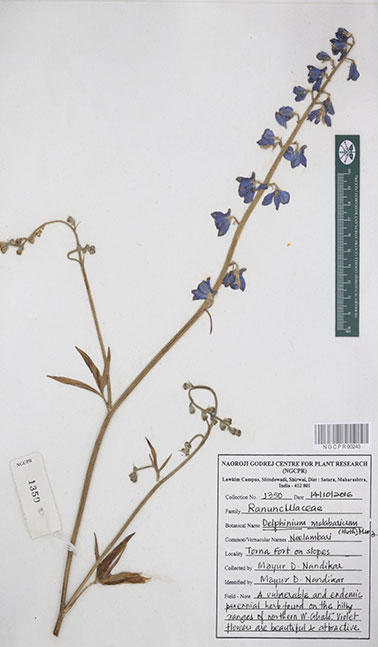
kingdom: Plantae
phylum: Tracheophyta
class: Magnoliopsida
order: Ranunculales
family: Ranunculaceae
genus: Delphinium
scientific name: Delphinium malabaricum
